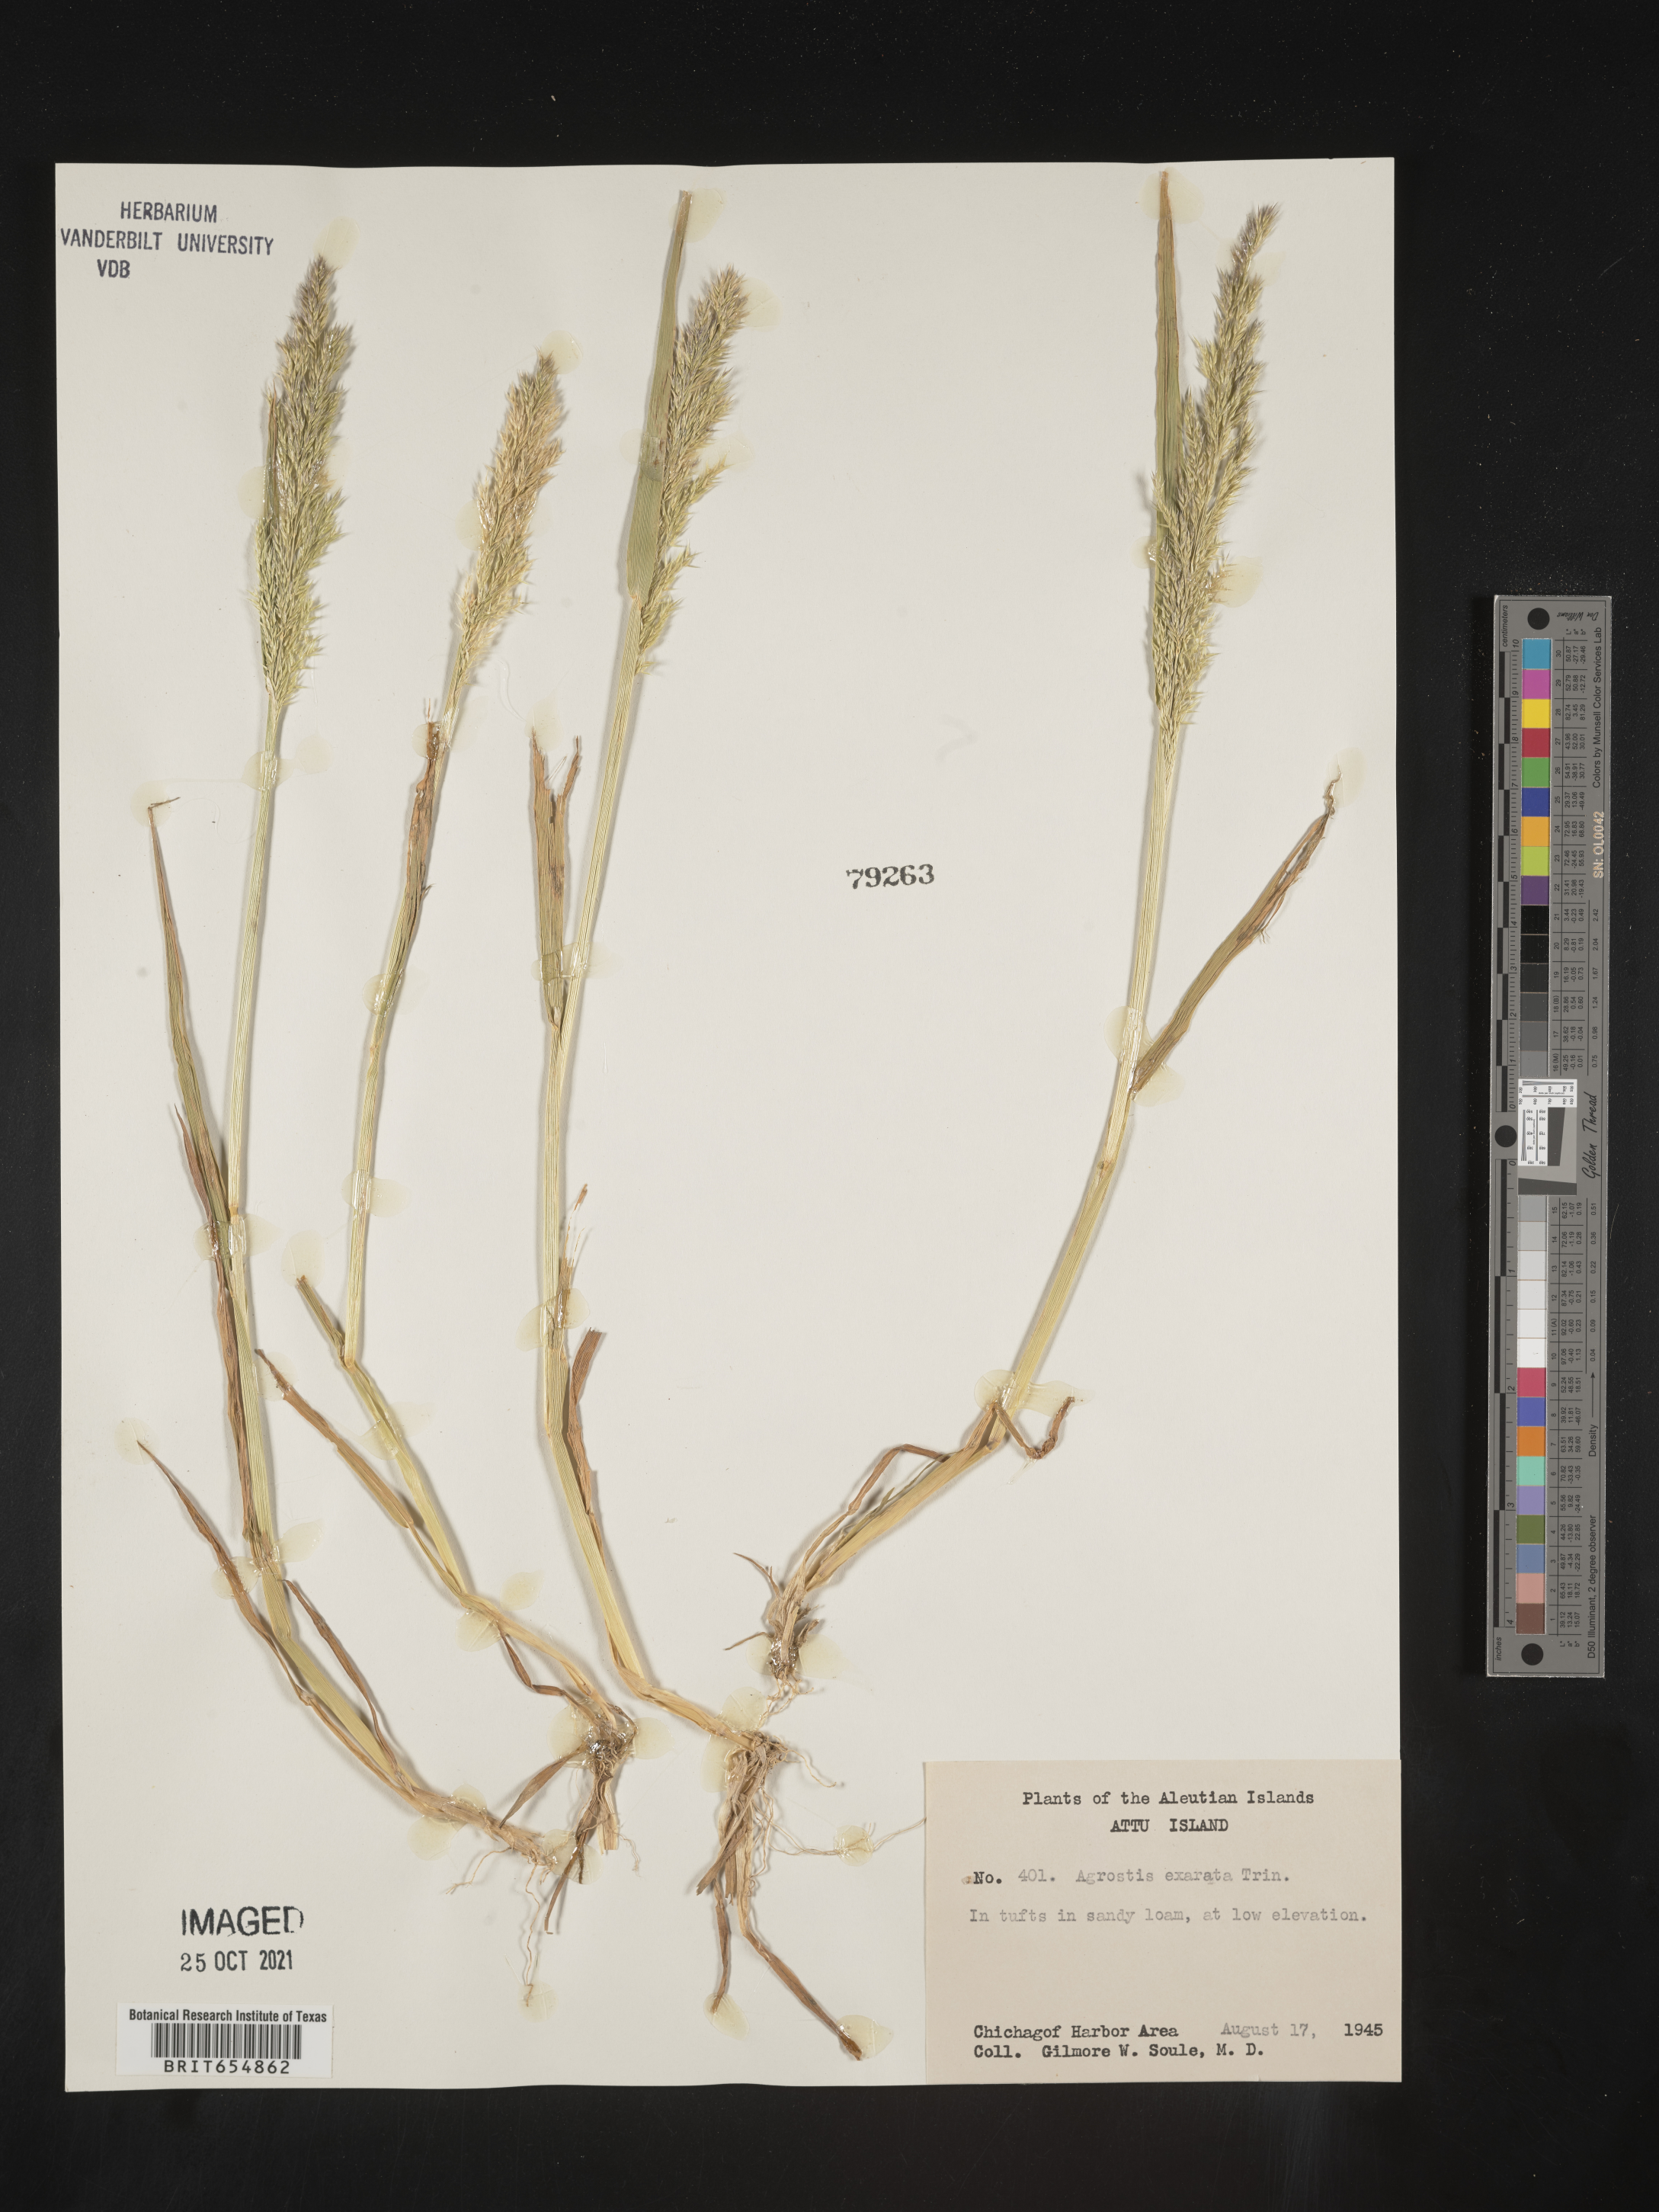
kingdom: Plantae
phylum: Tracheophyta
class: Liliopsida
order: Poales
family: Poaceae
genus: Agrostis
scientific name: Agrostis
